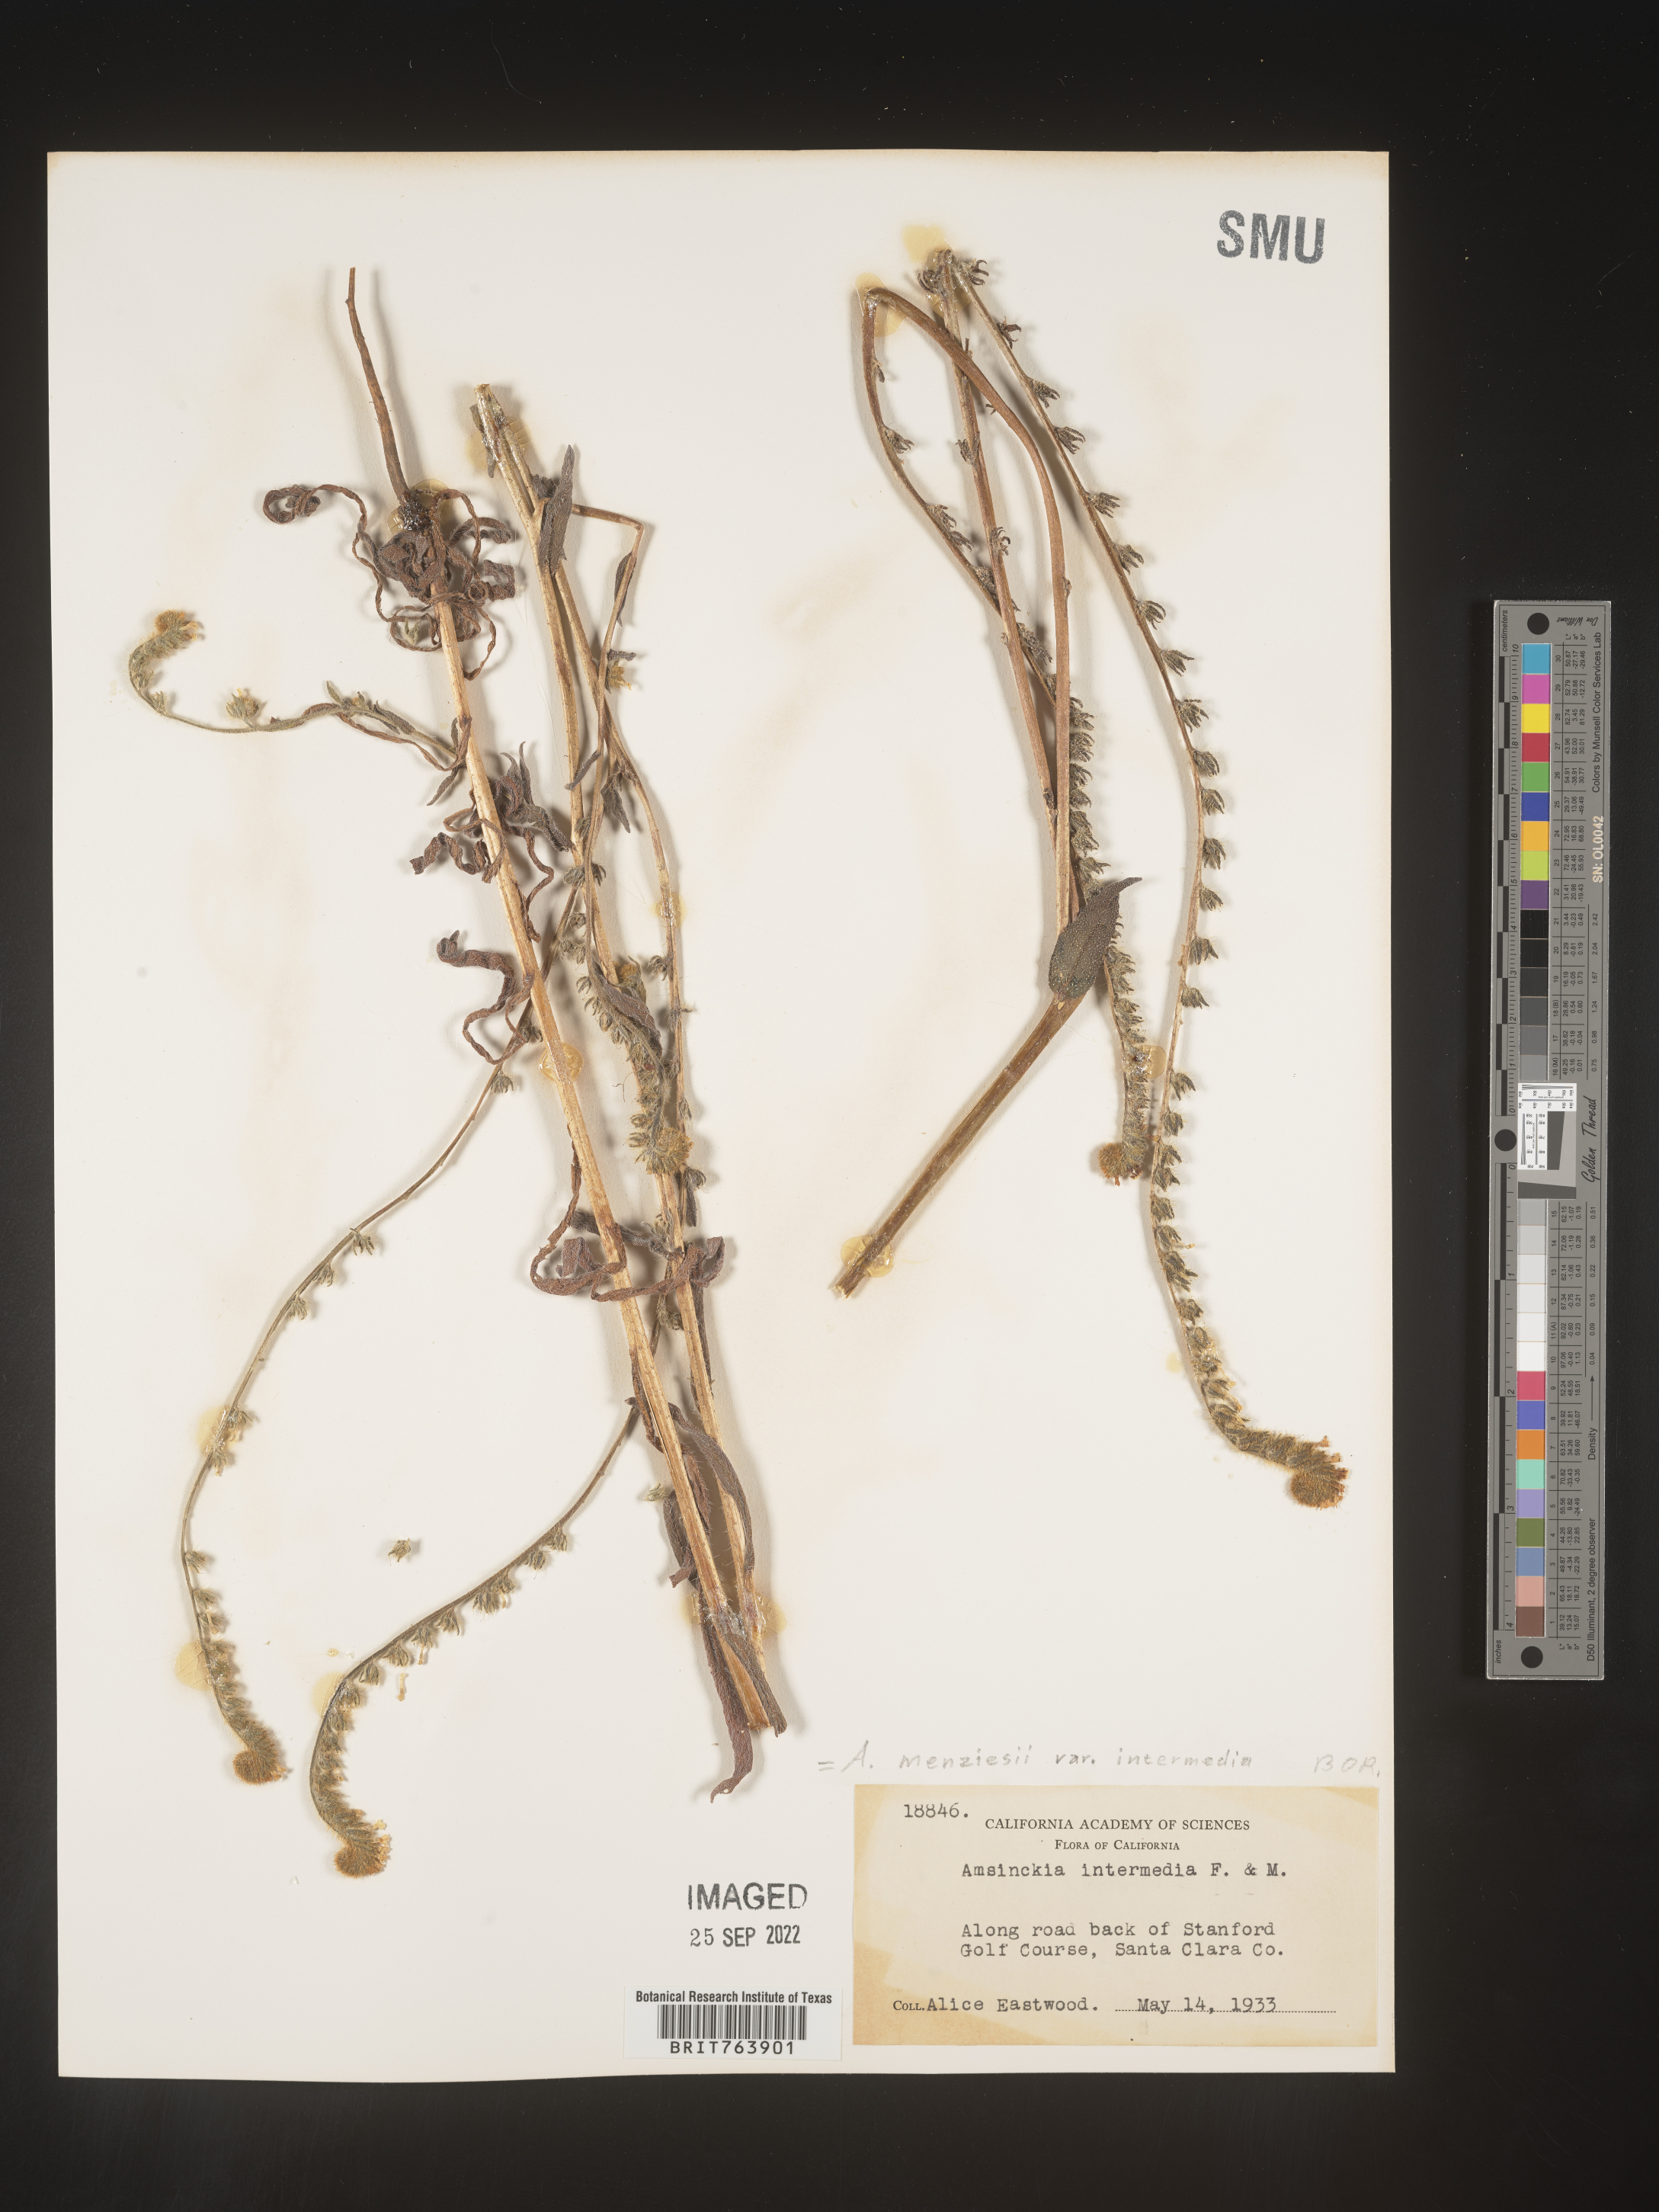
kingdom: Plantae
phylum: Tracheophyta
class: Magnoliopsida
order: Boraginales
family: Boraginaceae
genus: Amsinckia
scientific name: Amsinckia menziesii
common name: Menzies' fiddleneck
